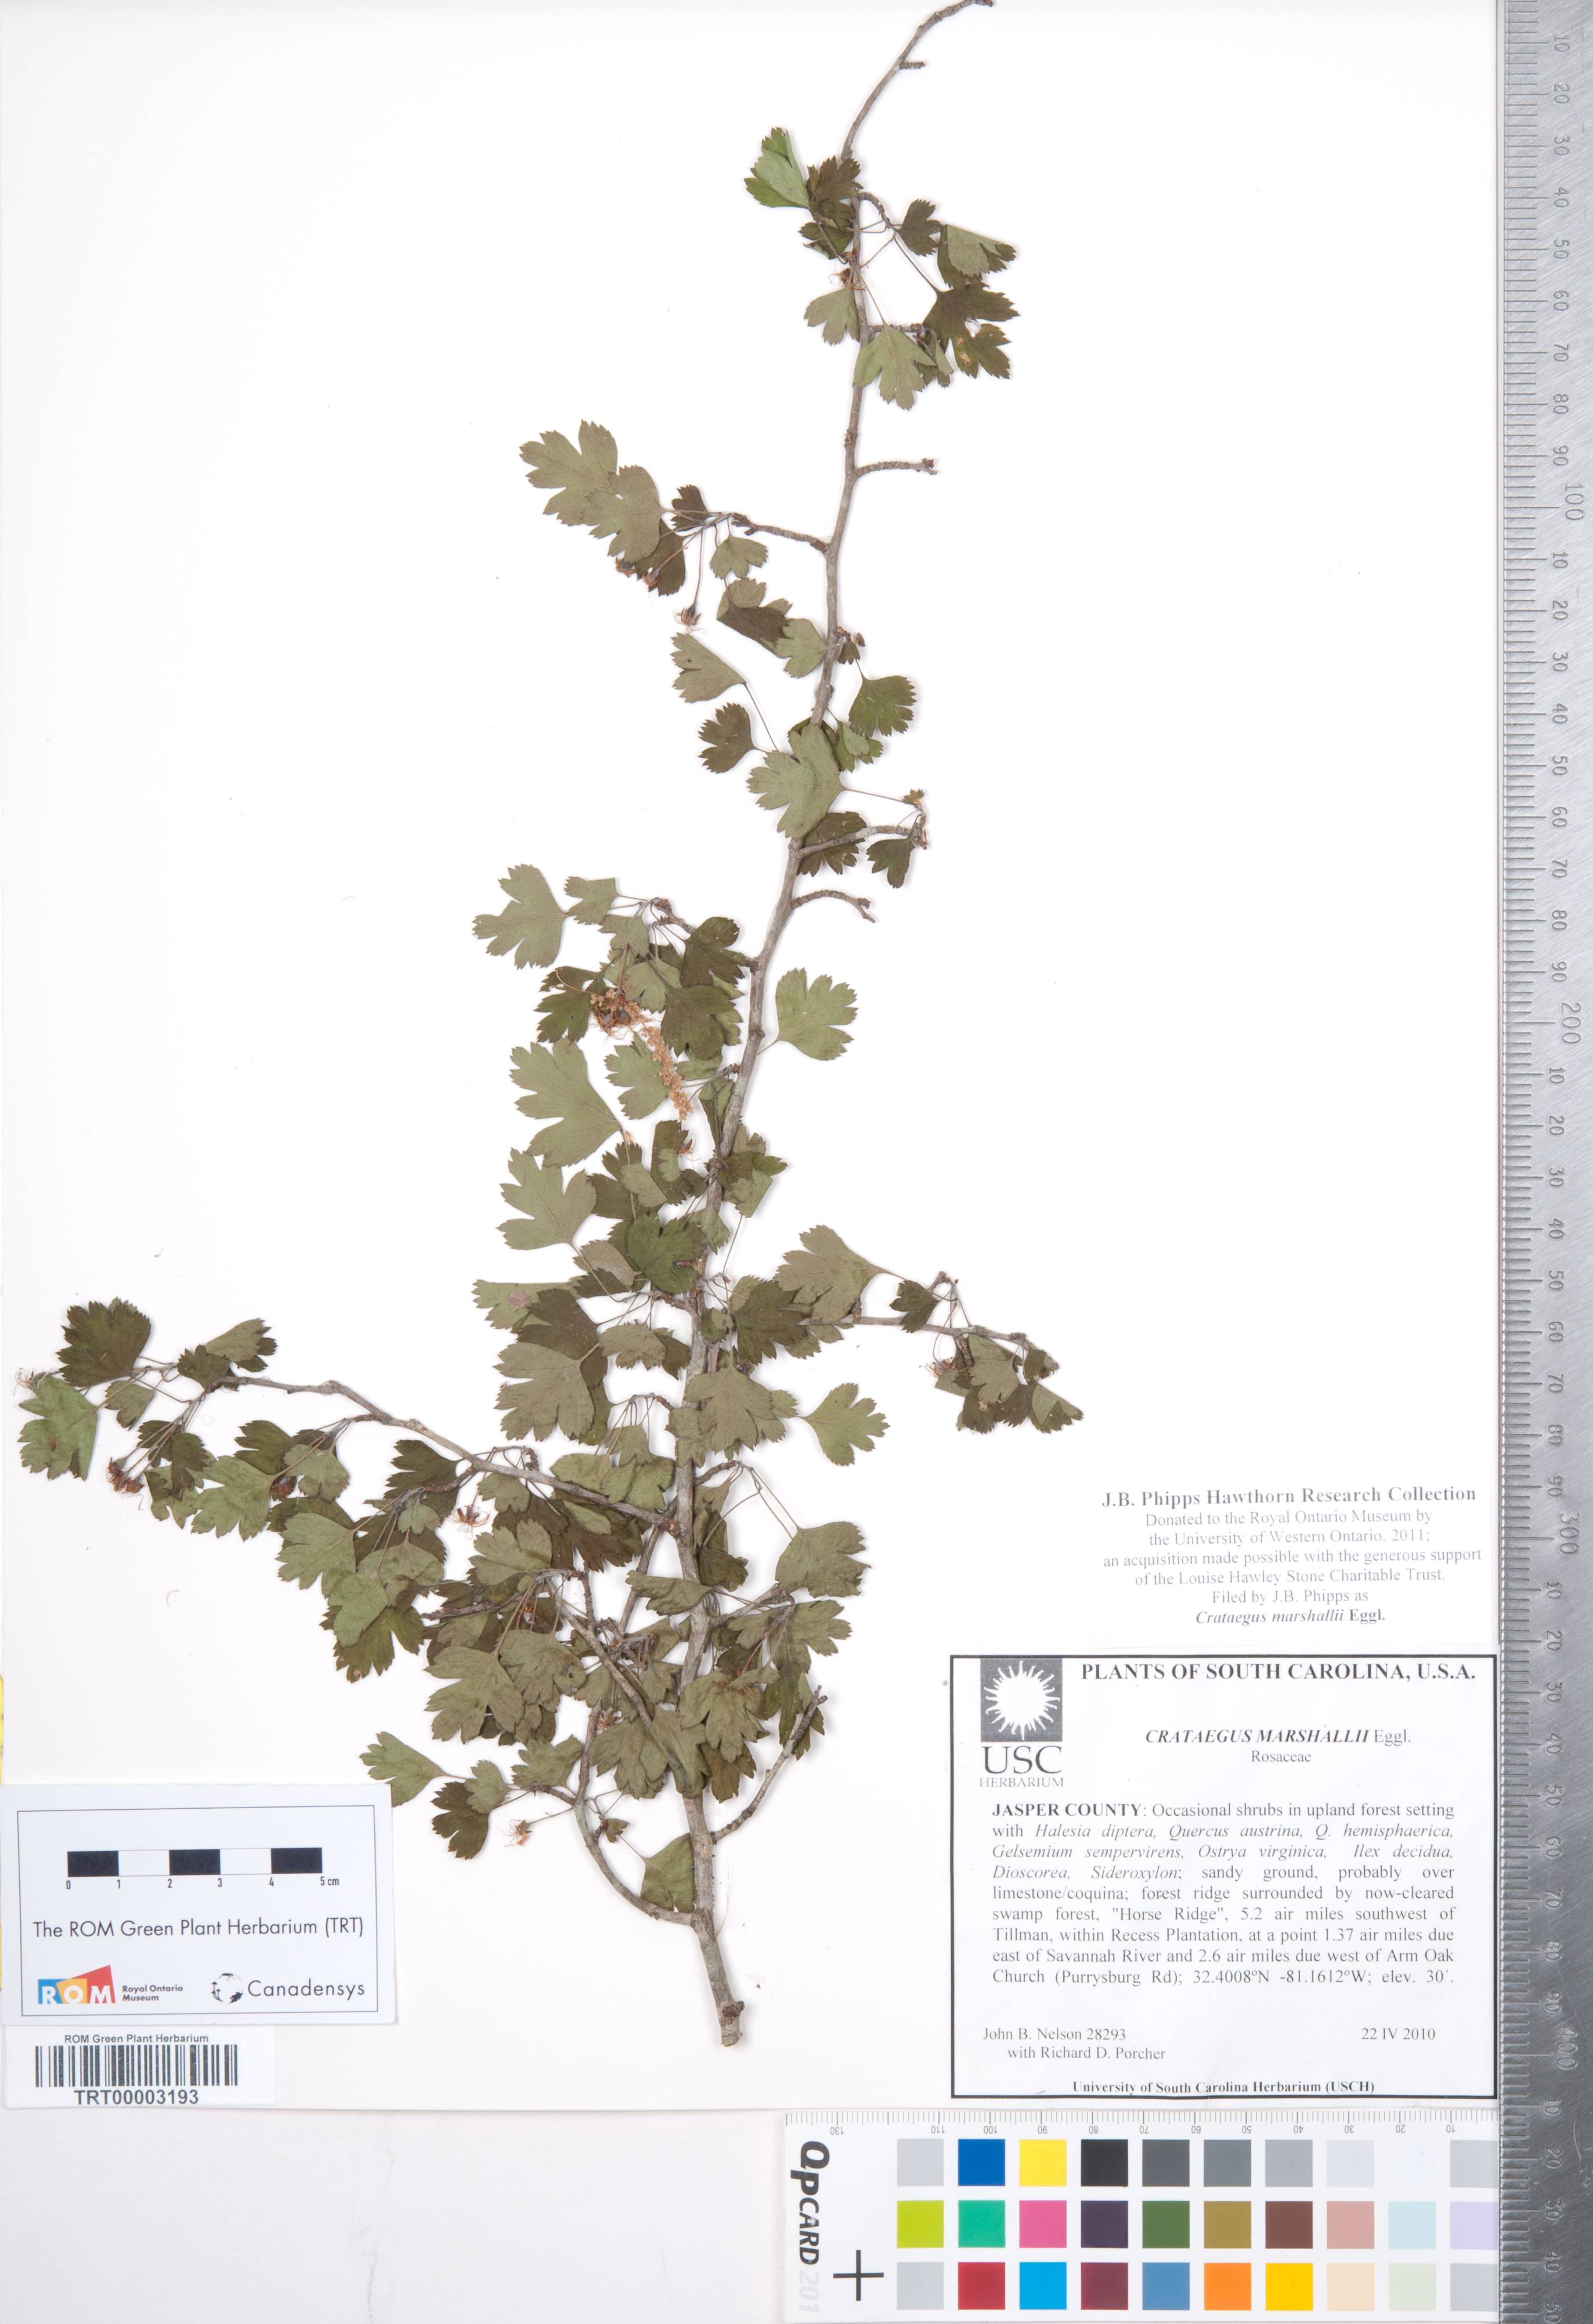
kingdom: Plantae
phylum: Tracheophyta
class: Magnoliopsida
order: Rosales
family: Rosaceae
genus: Crataegus
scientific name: Crataegus marshallii
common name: Parsley-hawthorn
